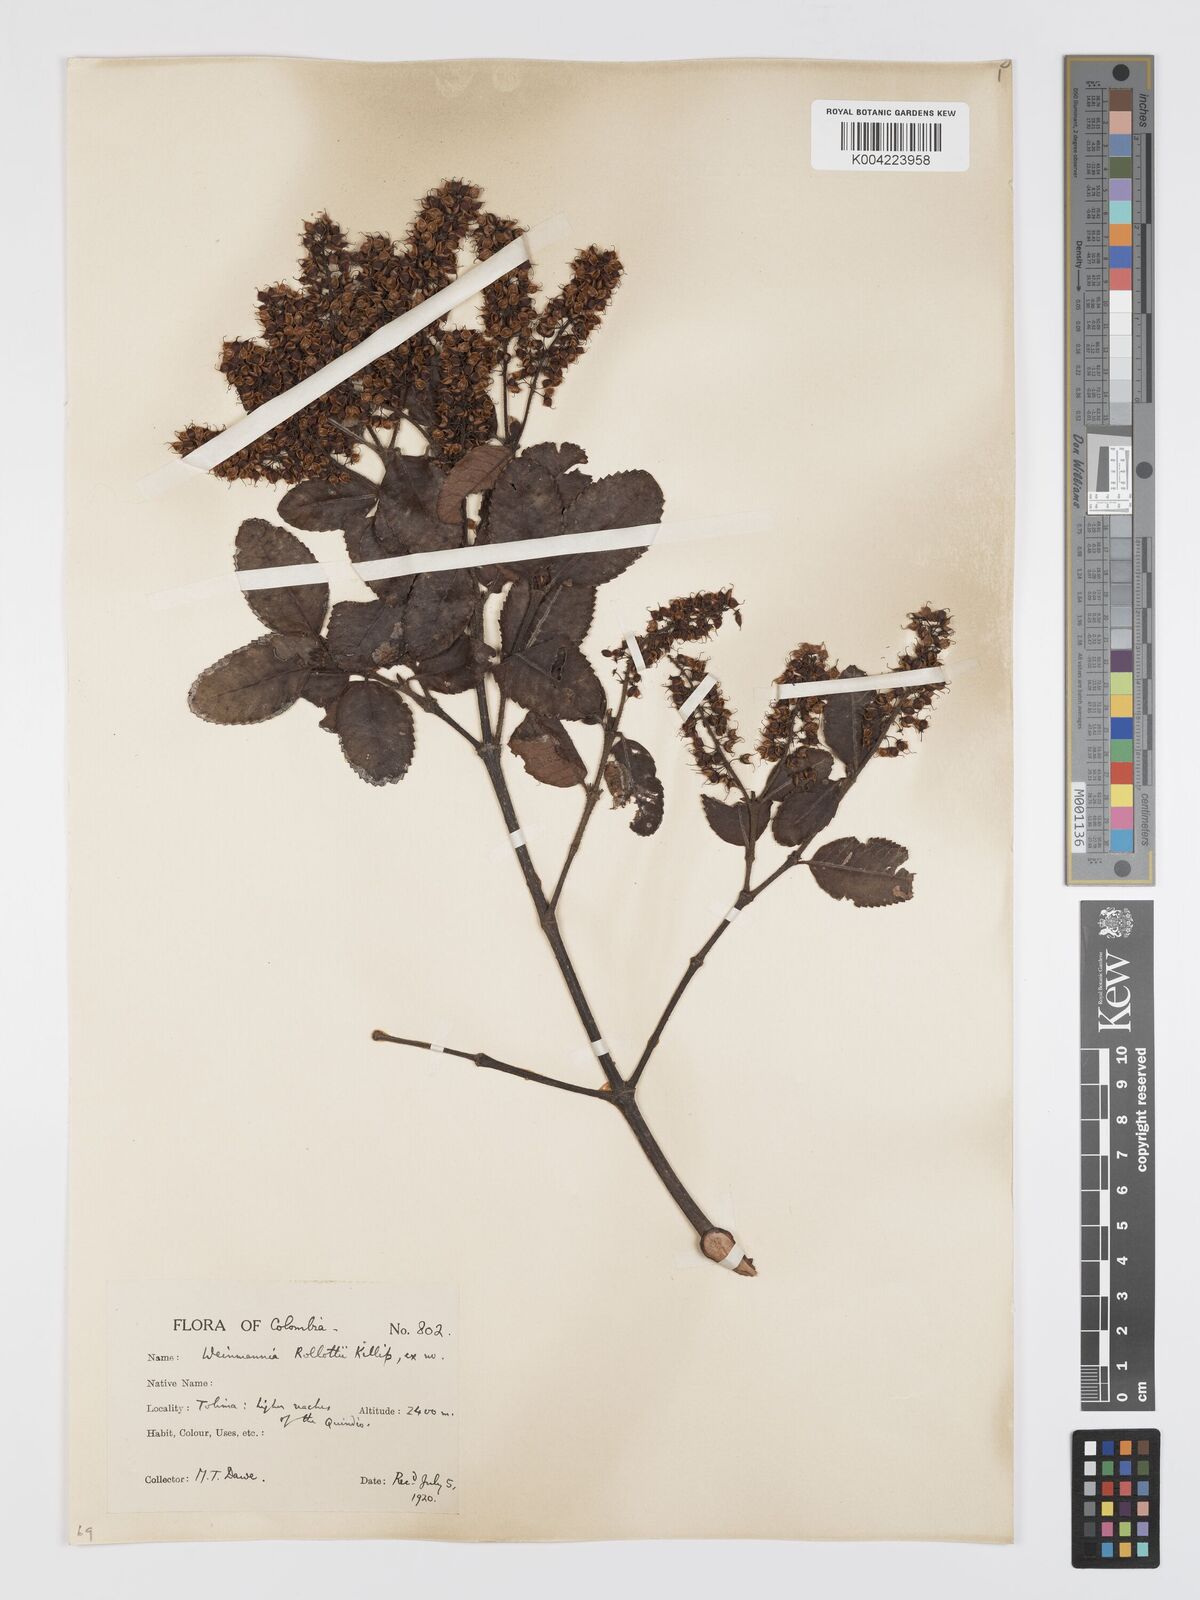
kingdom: Plantae
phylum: Tracheophyta
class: Magnoliopsida
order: Oxalidales
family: Cunoniaceae
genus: Weinmannia
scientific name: Weinmannia rollottii
